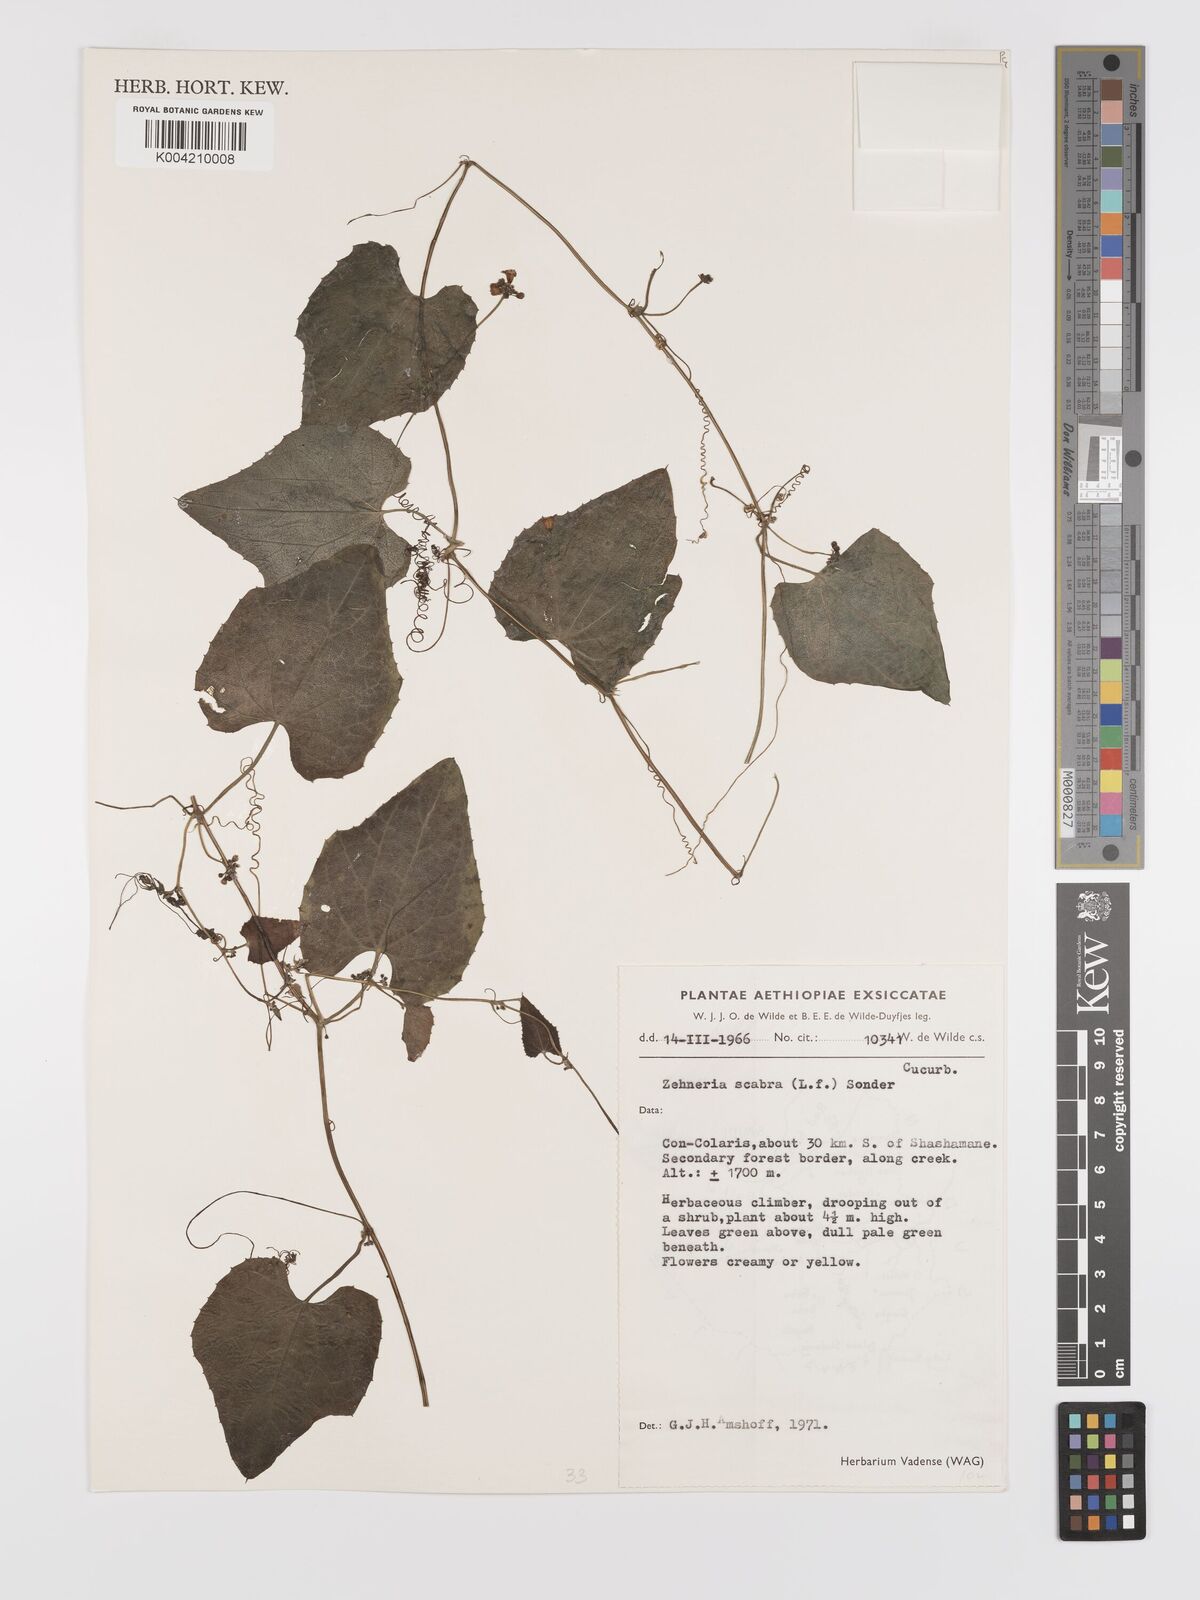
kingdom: Plantae
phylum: Tracheophyta
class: Magnoliopsida
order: Cucurbitales
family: Cucurbitaceae
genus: Zehneria
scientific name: Zehneria scabra
